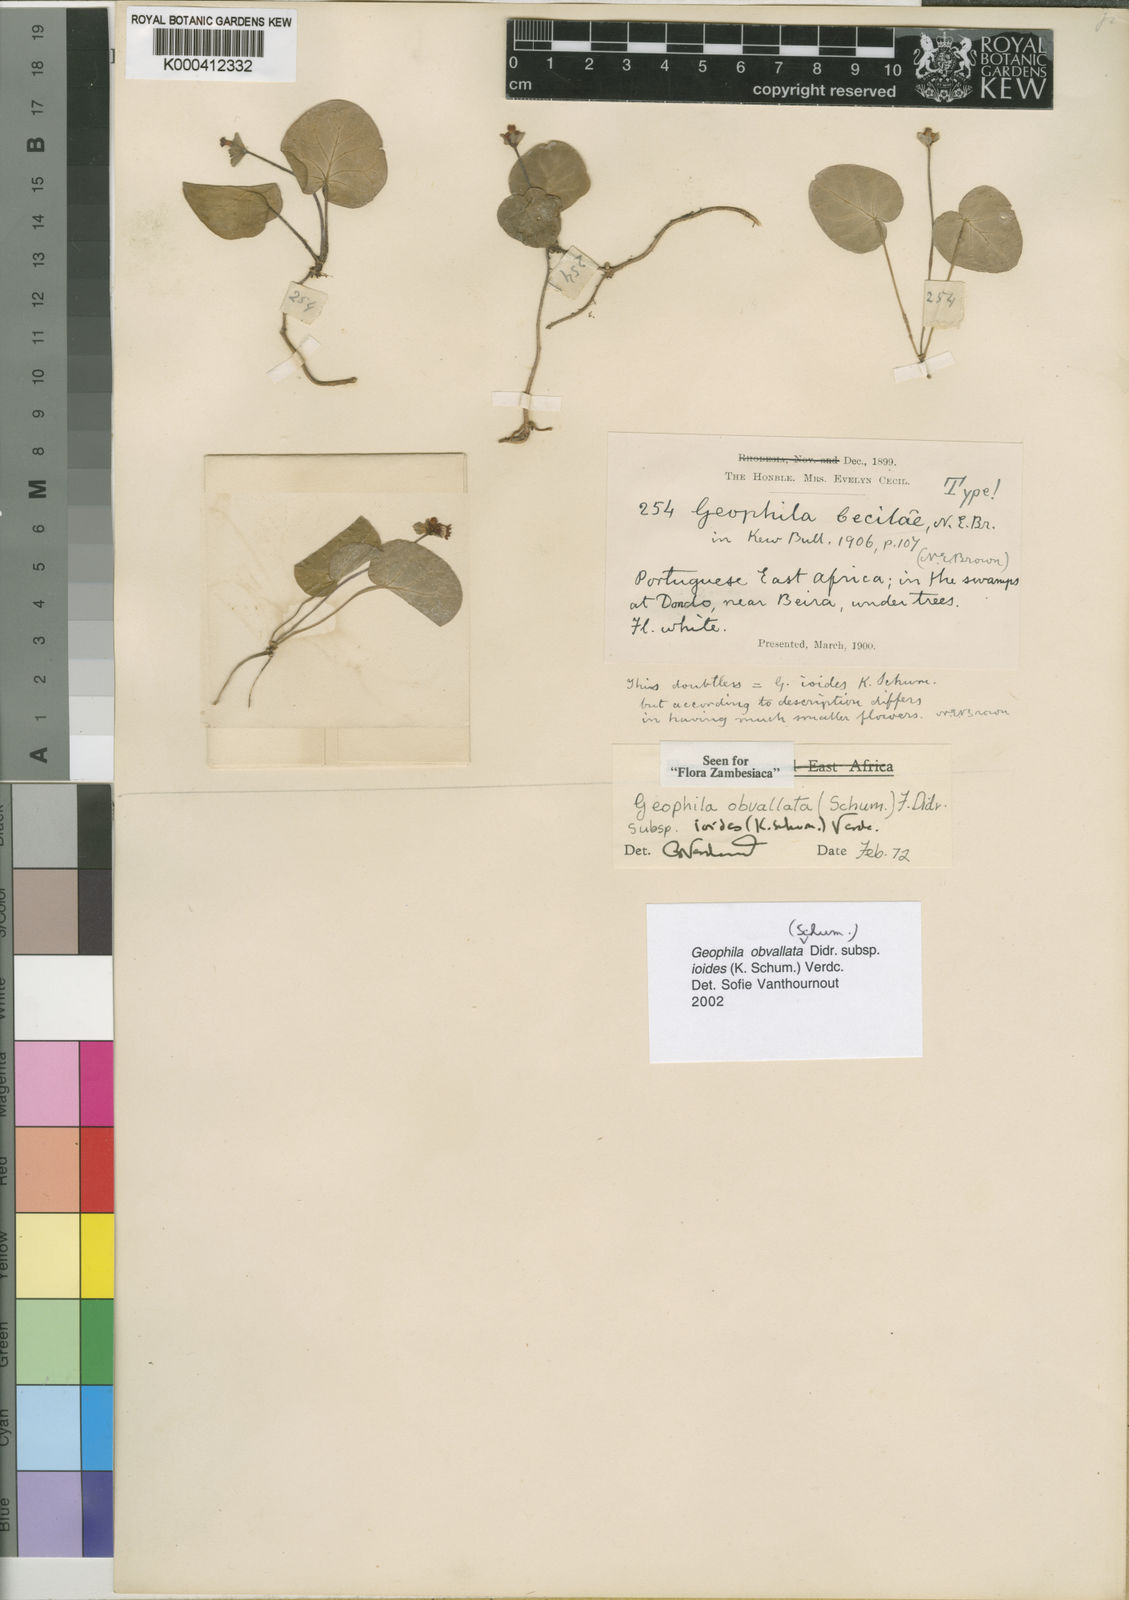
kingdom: Plantae
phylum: Tracheophyta
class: Magnoliopsida
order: Gentianales
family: Rubiaceae
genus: Geophila
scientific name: Geophila obvallata
